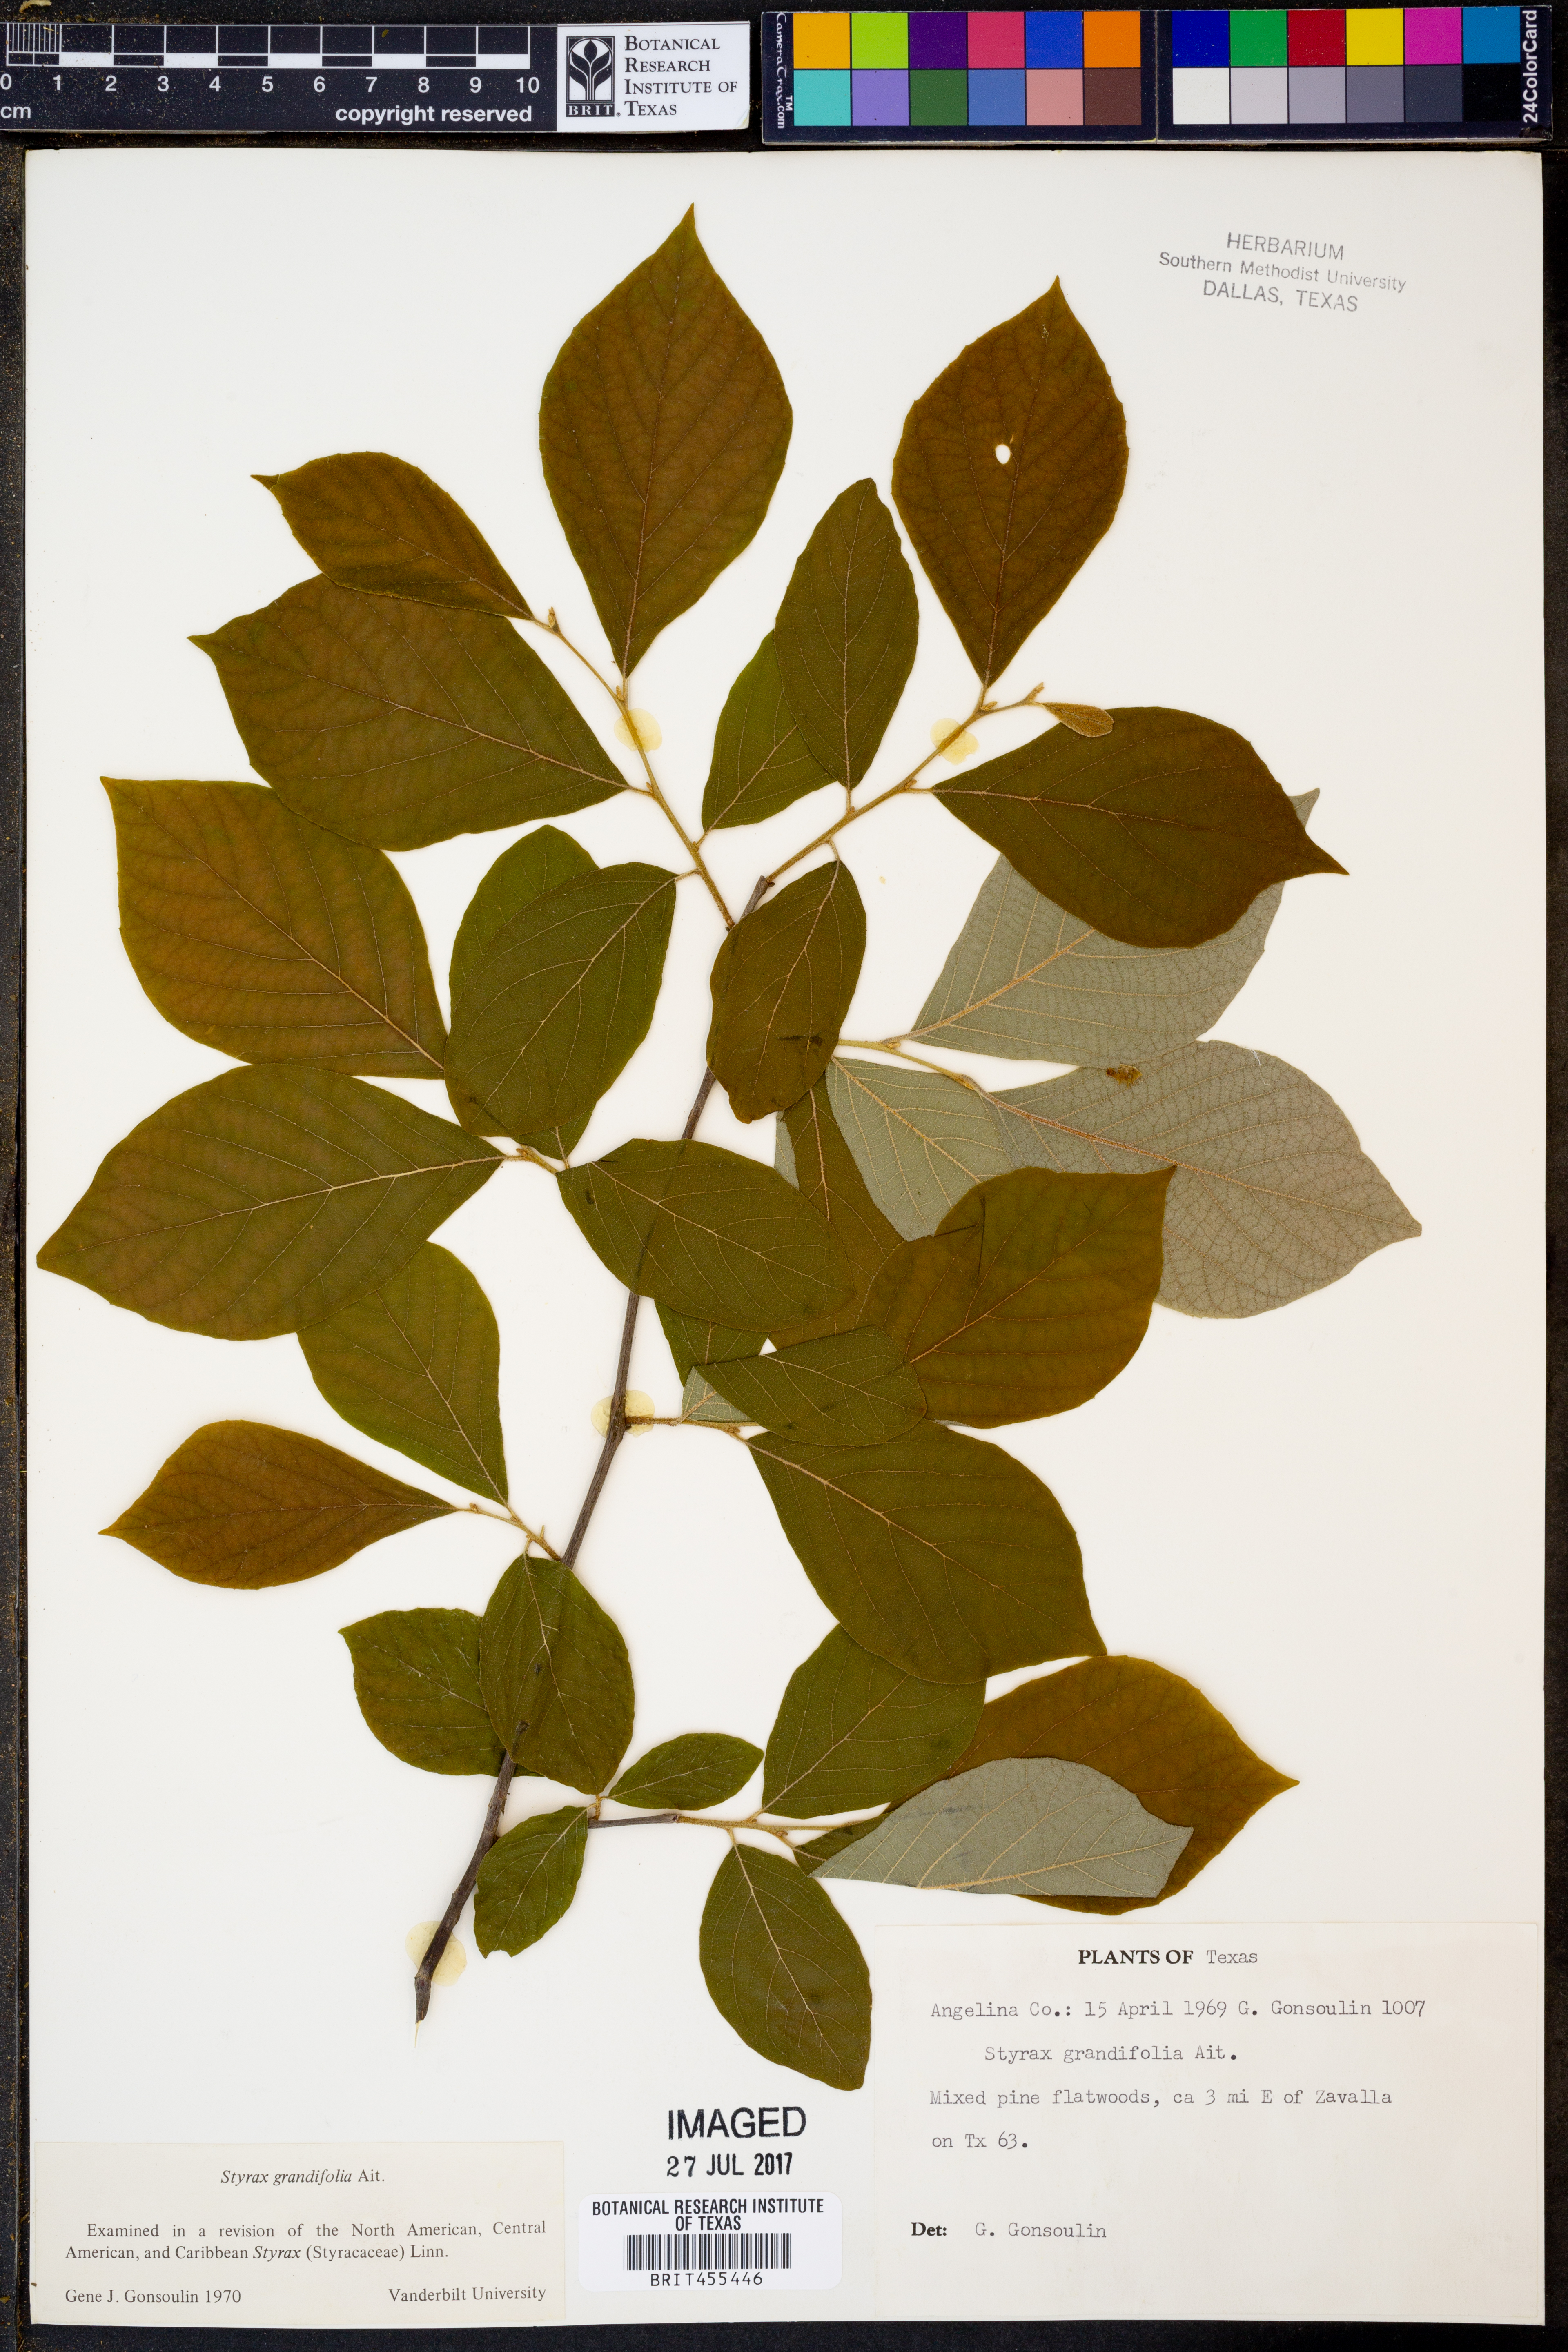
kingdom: Plantae
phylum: Tracheophyta
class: Magnoliopsida
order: Ericales
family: Styracaceae
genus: Styrax
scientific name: Styrax grandifolius
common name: Big-leaf snowbell
